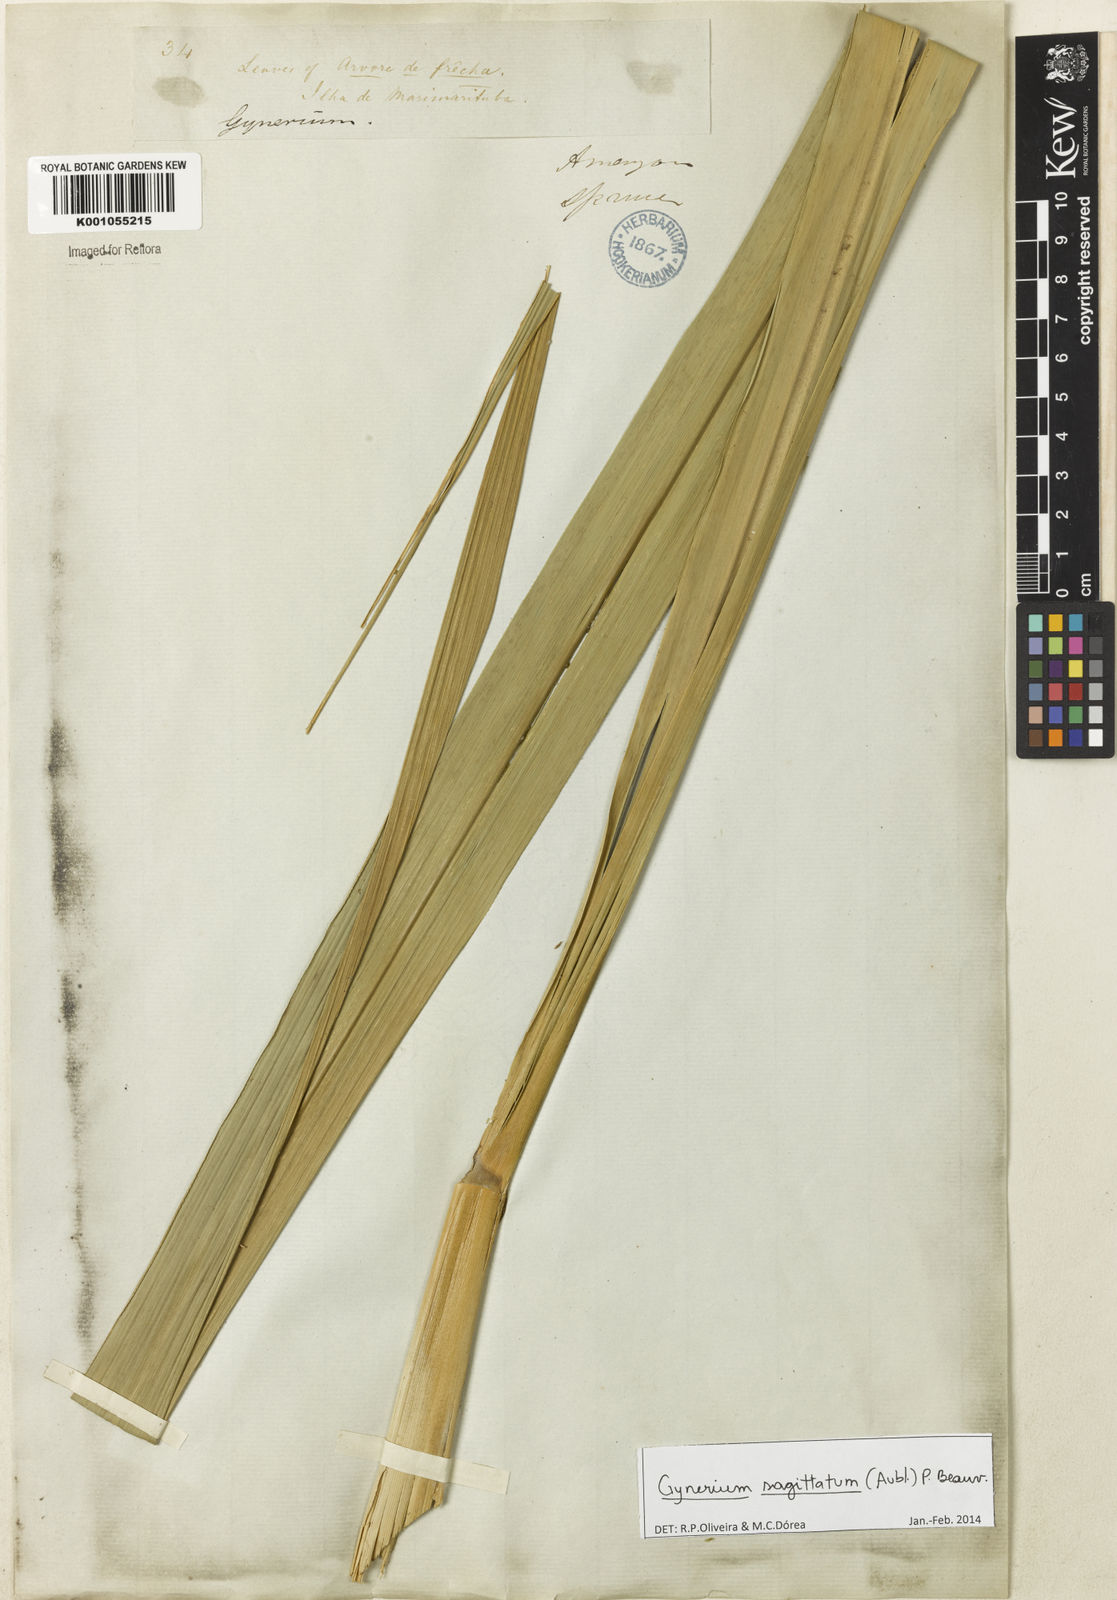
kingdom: Plantae
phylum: Tracheophyta
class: Liliopsida
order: Poales
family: Poaceae
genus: Gynerium
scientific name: Gynerium sagittatum
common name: Wild cane
